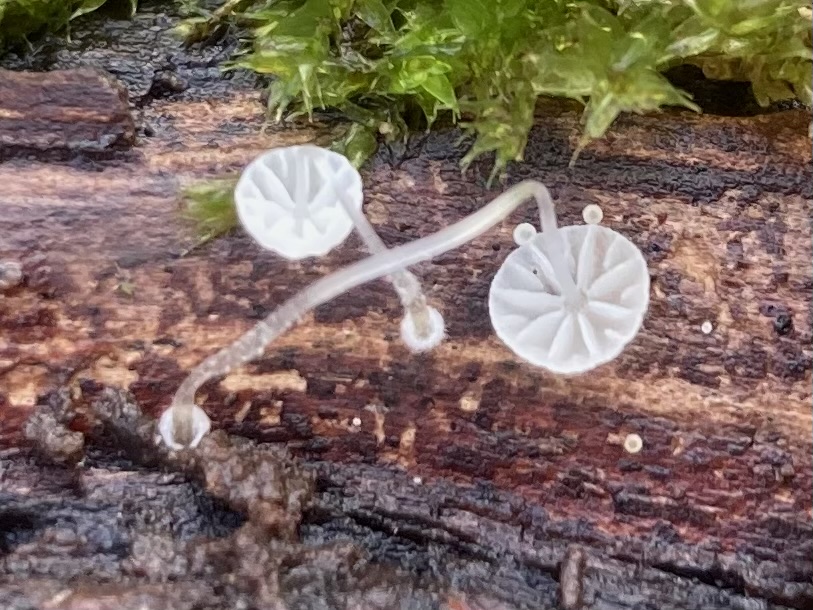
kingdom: Fungi
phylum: Basidiomycota
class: Agaricomycetes
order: Agaricales
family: Mycenaceae
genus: Mycena
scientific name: Mycena clavularis
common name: dunskivet huesvamp
